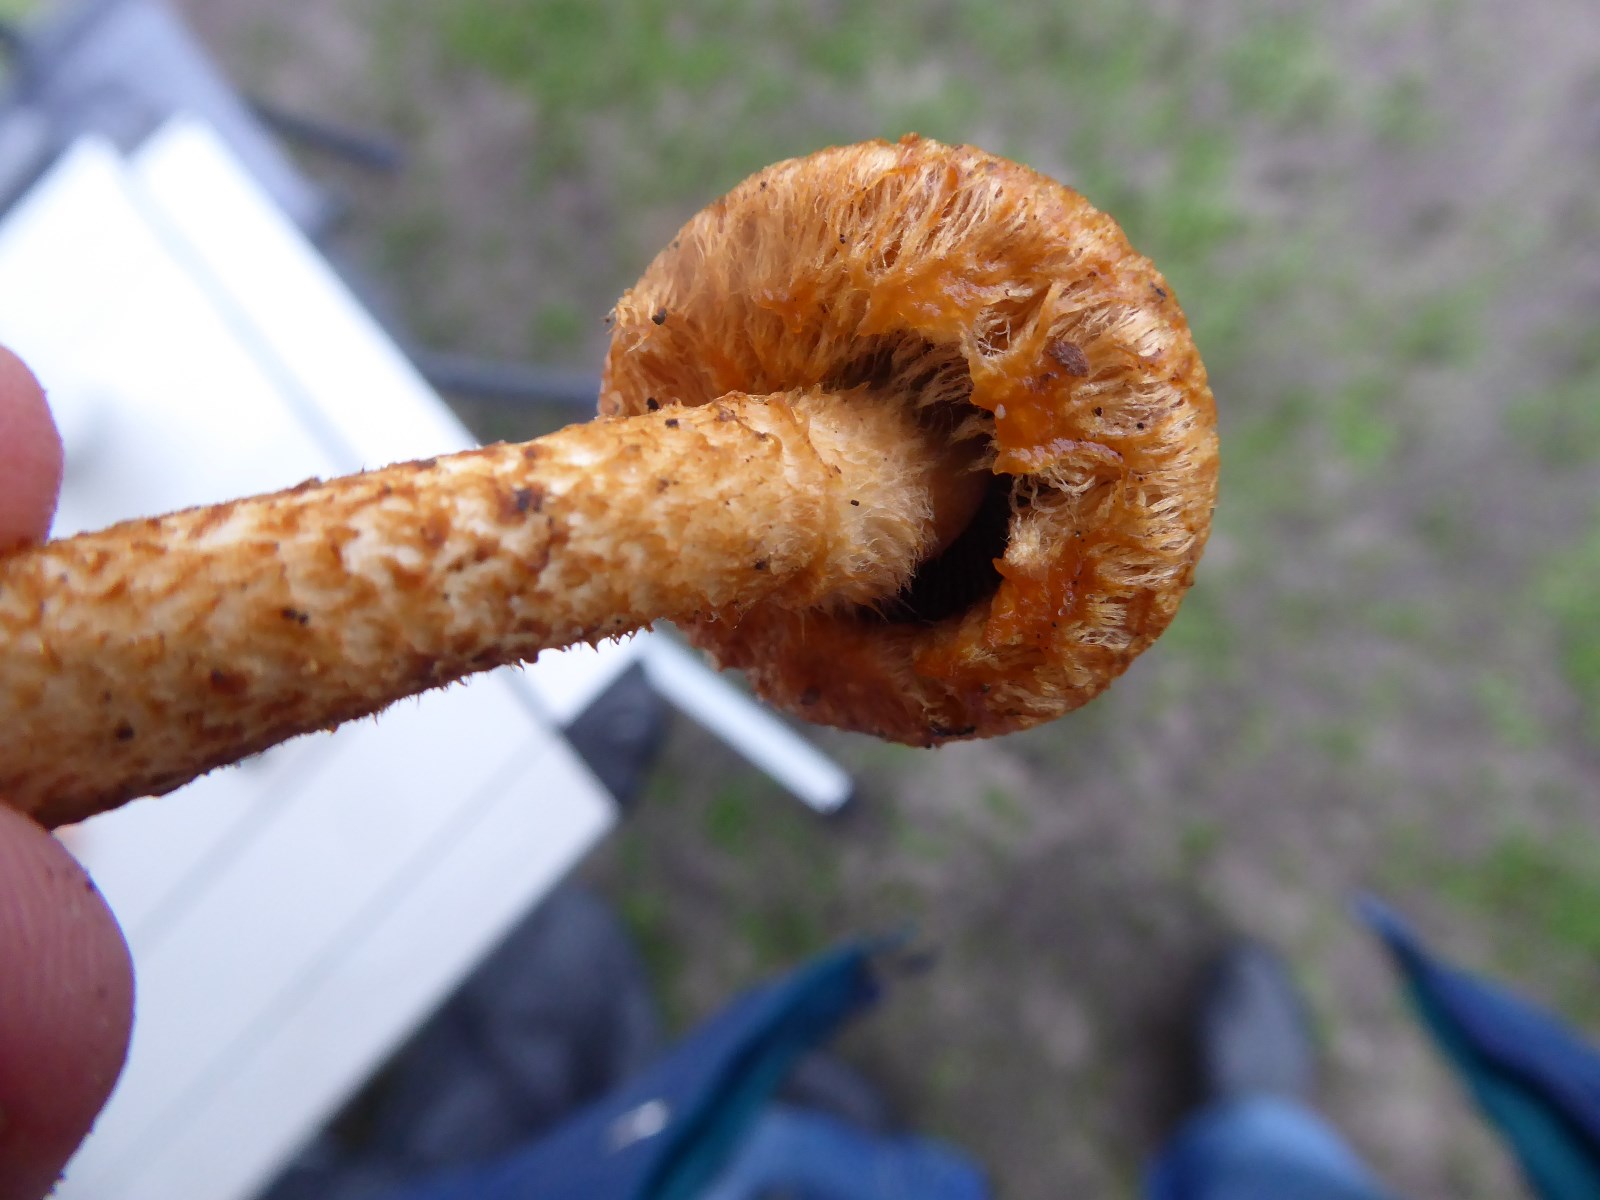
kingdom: Fungi
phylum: Basidiomycota
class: Agaricomycetes
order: Agaricales
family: Psathyrellaceae
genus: Lacrymaria
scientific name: Lacrymaria pyrotricha
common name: ildhåret mørkhat
